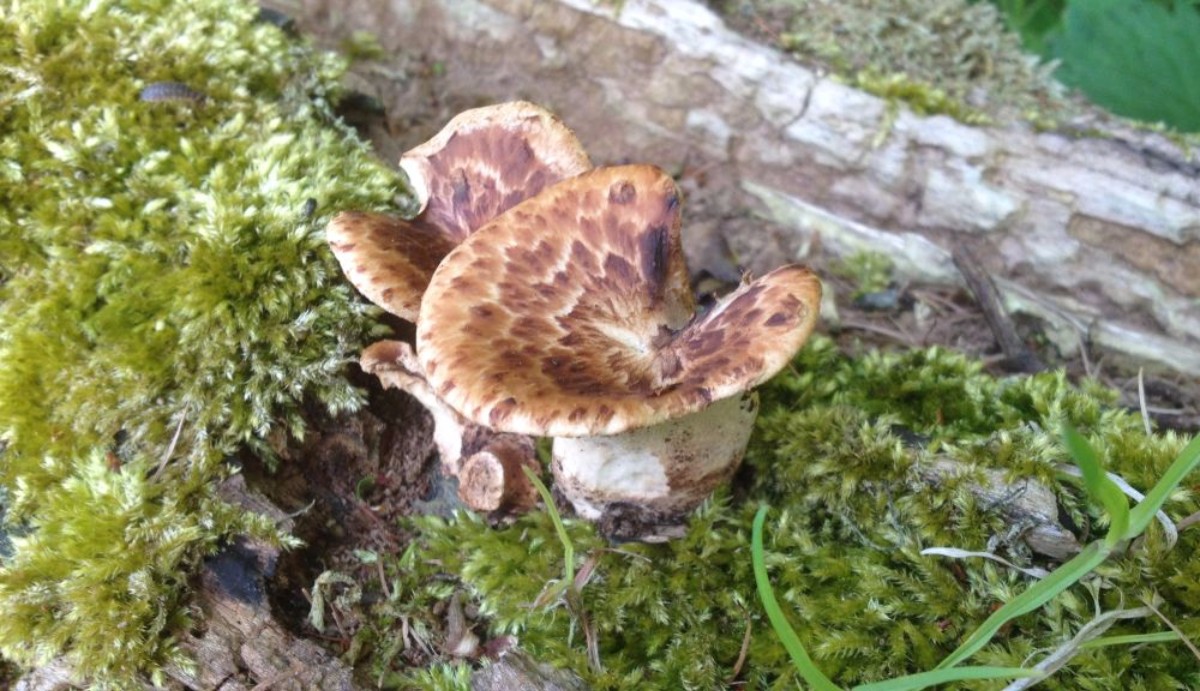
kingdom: Fungi
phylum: Basidiomycota
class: Agaricomycetes
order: Polyporales
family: Polyporaceae
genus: Cerioporus
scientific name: Cerioporus squamosus
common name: skællet stilkporesvamp
